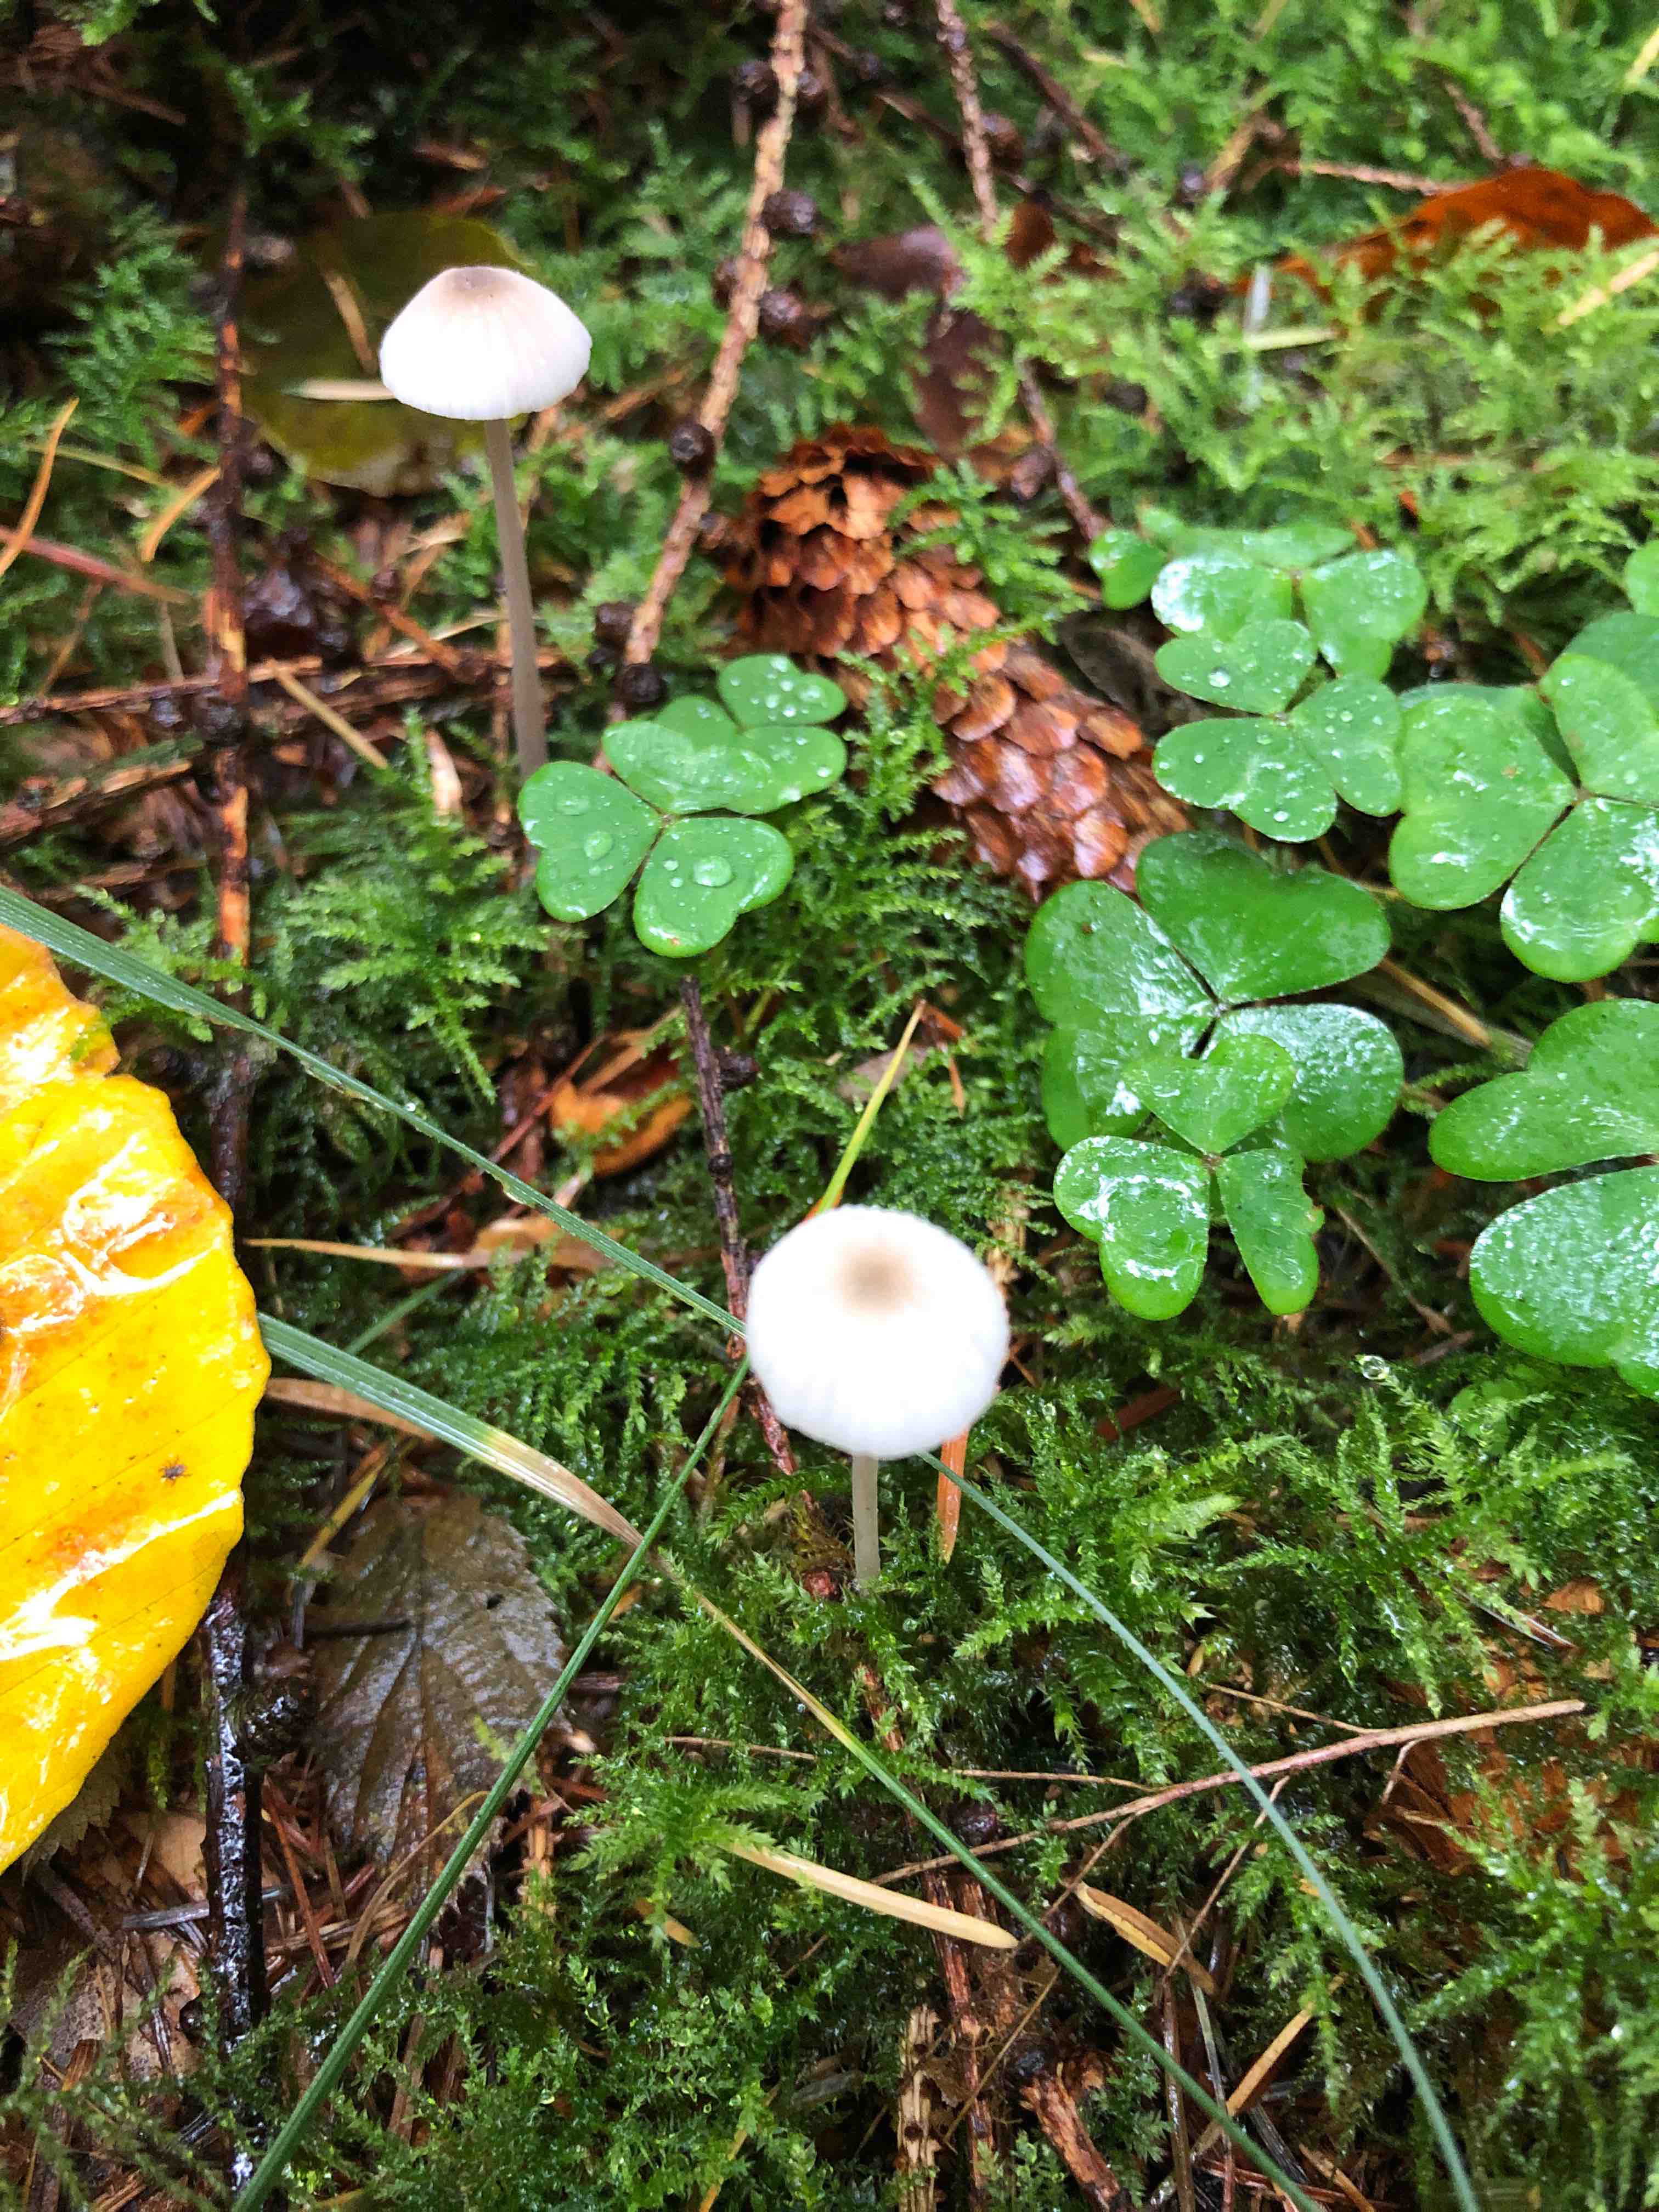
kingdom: Fungi
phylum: Basidiomycota
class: Agaricomycetes
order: Agaricales
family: Mycenaceae
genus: Mycena
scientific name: Mycena
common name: huesvamp
